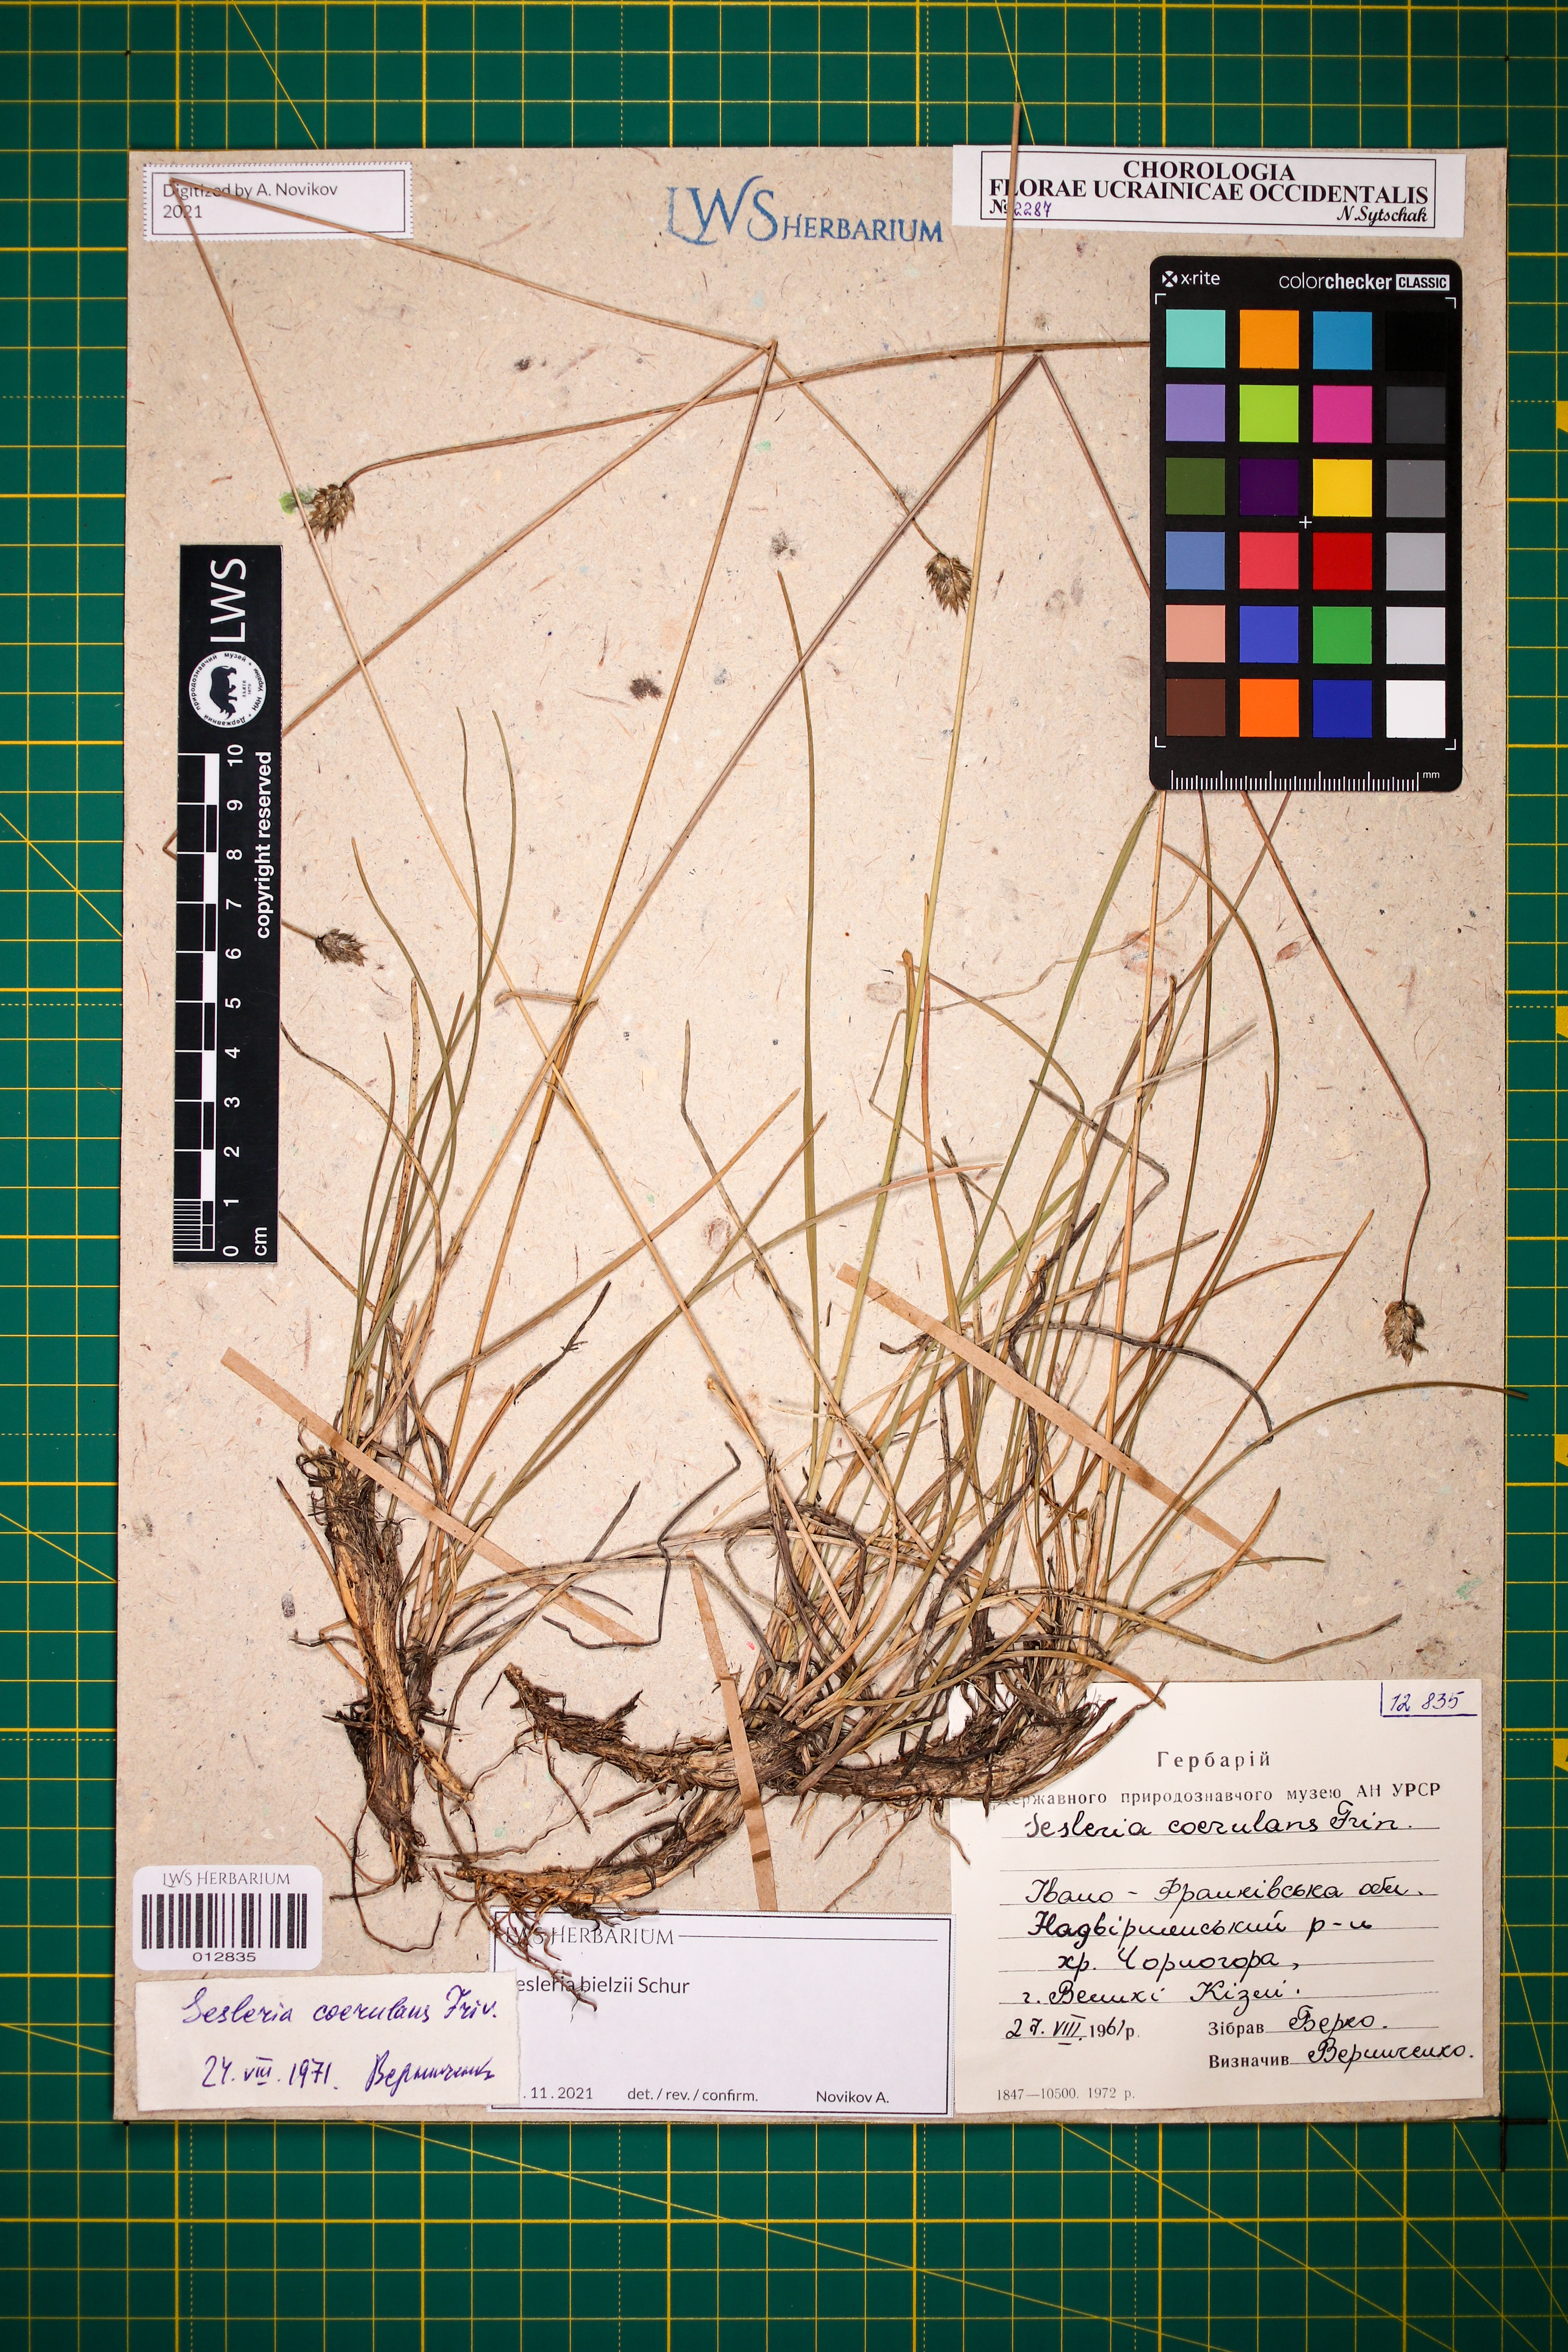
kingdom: Plantae
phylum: Tracheophyta
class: Liliopsida
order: Poales
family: Poaceae
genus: Sesleria
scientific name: Sesleria bielzii
